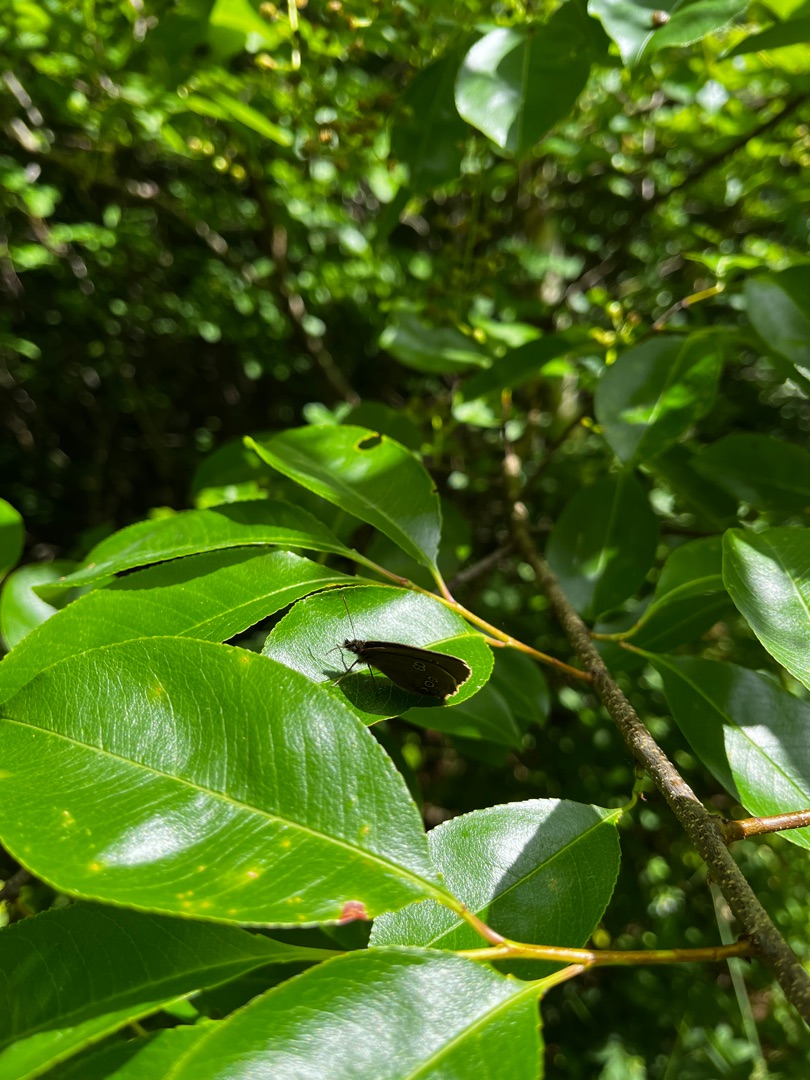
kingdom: Animalia
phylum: Arthropoda
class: Insecta
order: Lepidoptera
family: Nymphalidae
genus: Aphantopus
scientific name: Aphantopus hyperantus
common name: Engrandøje
